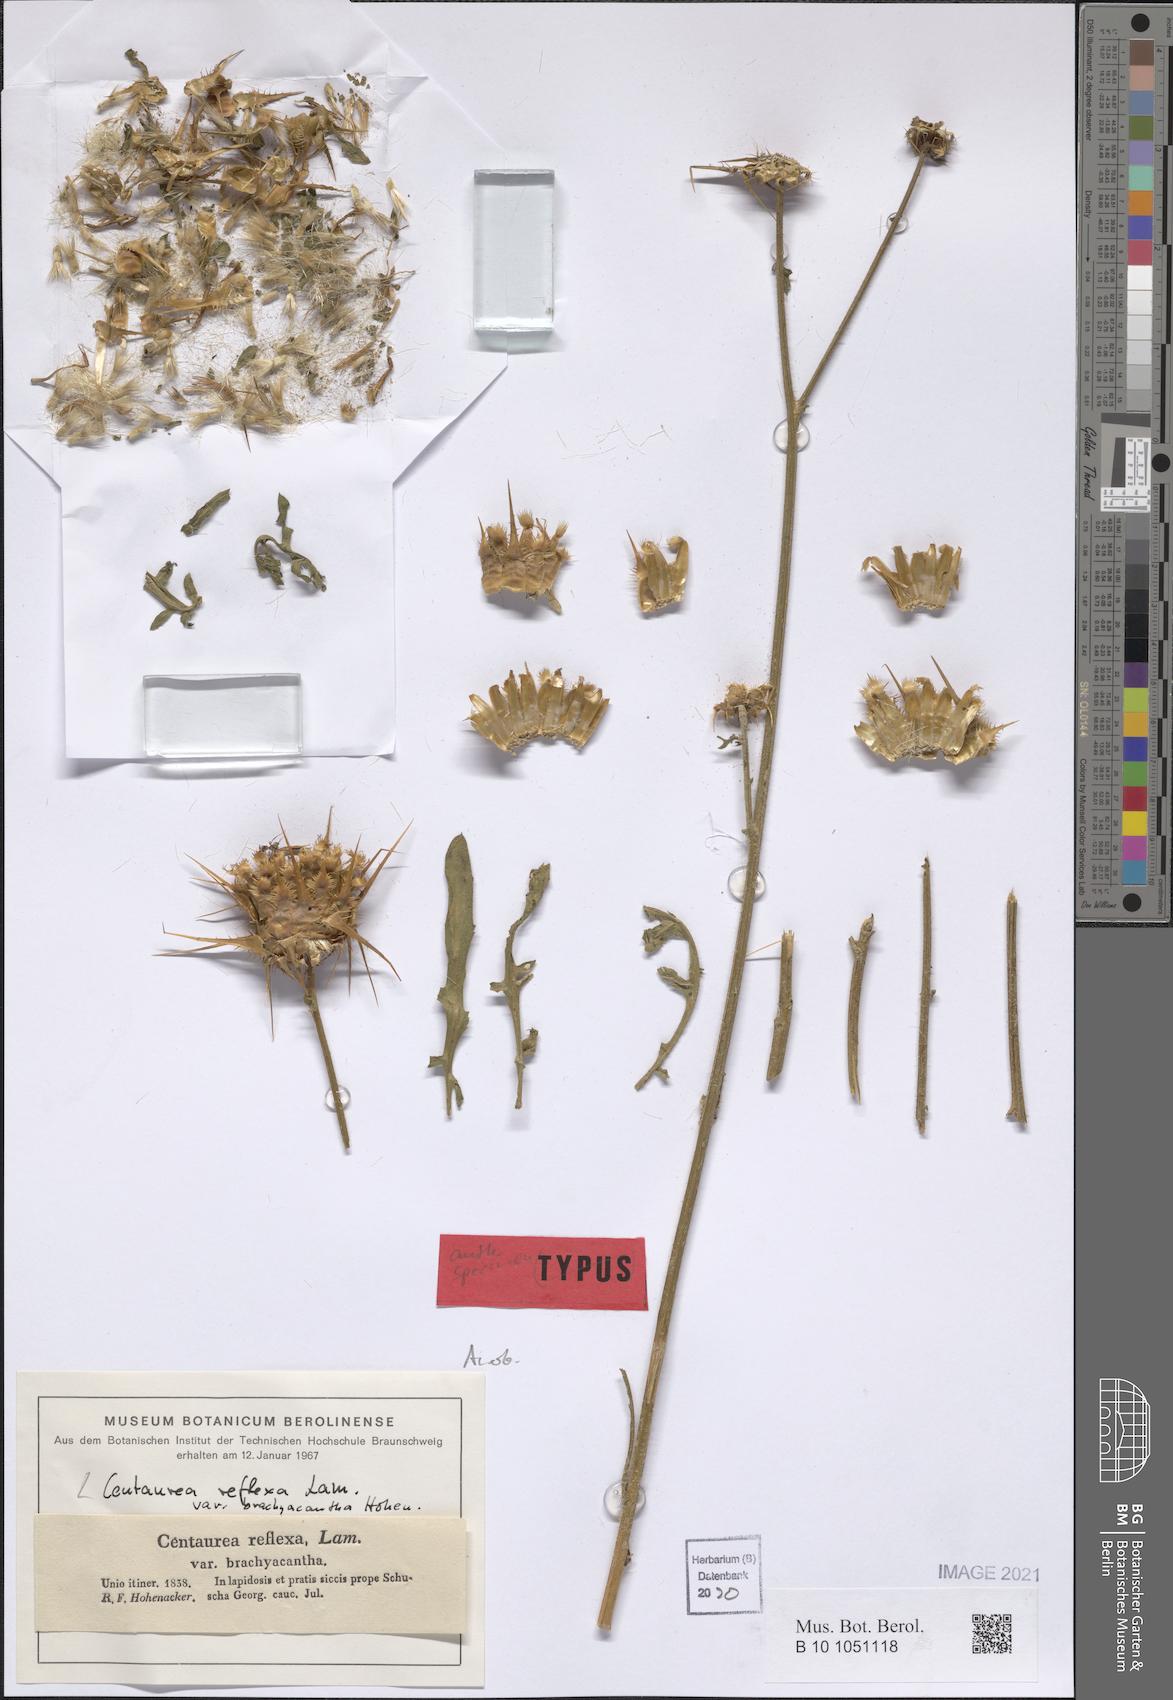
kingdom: Plantae
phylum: Tracheophyta
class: Magnoliopsida
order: Asterales
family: Asteraceae
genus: Centaurea
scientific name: Centaurea reflexa
